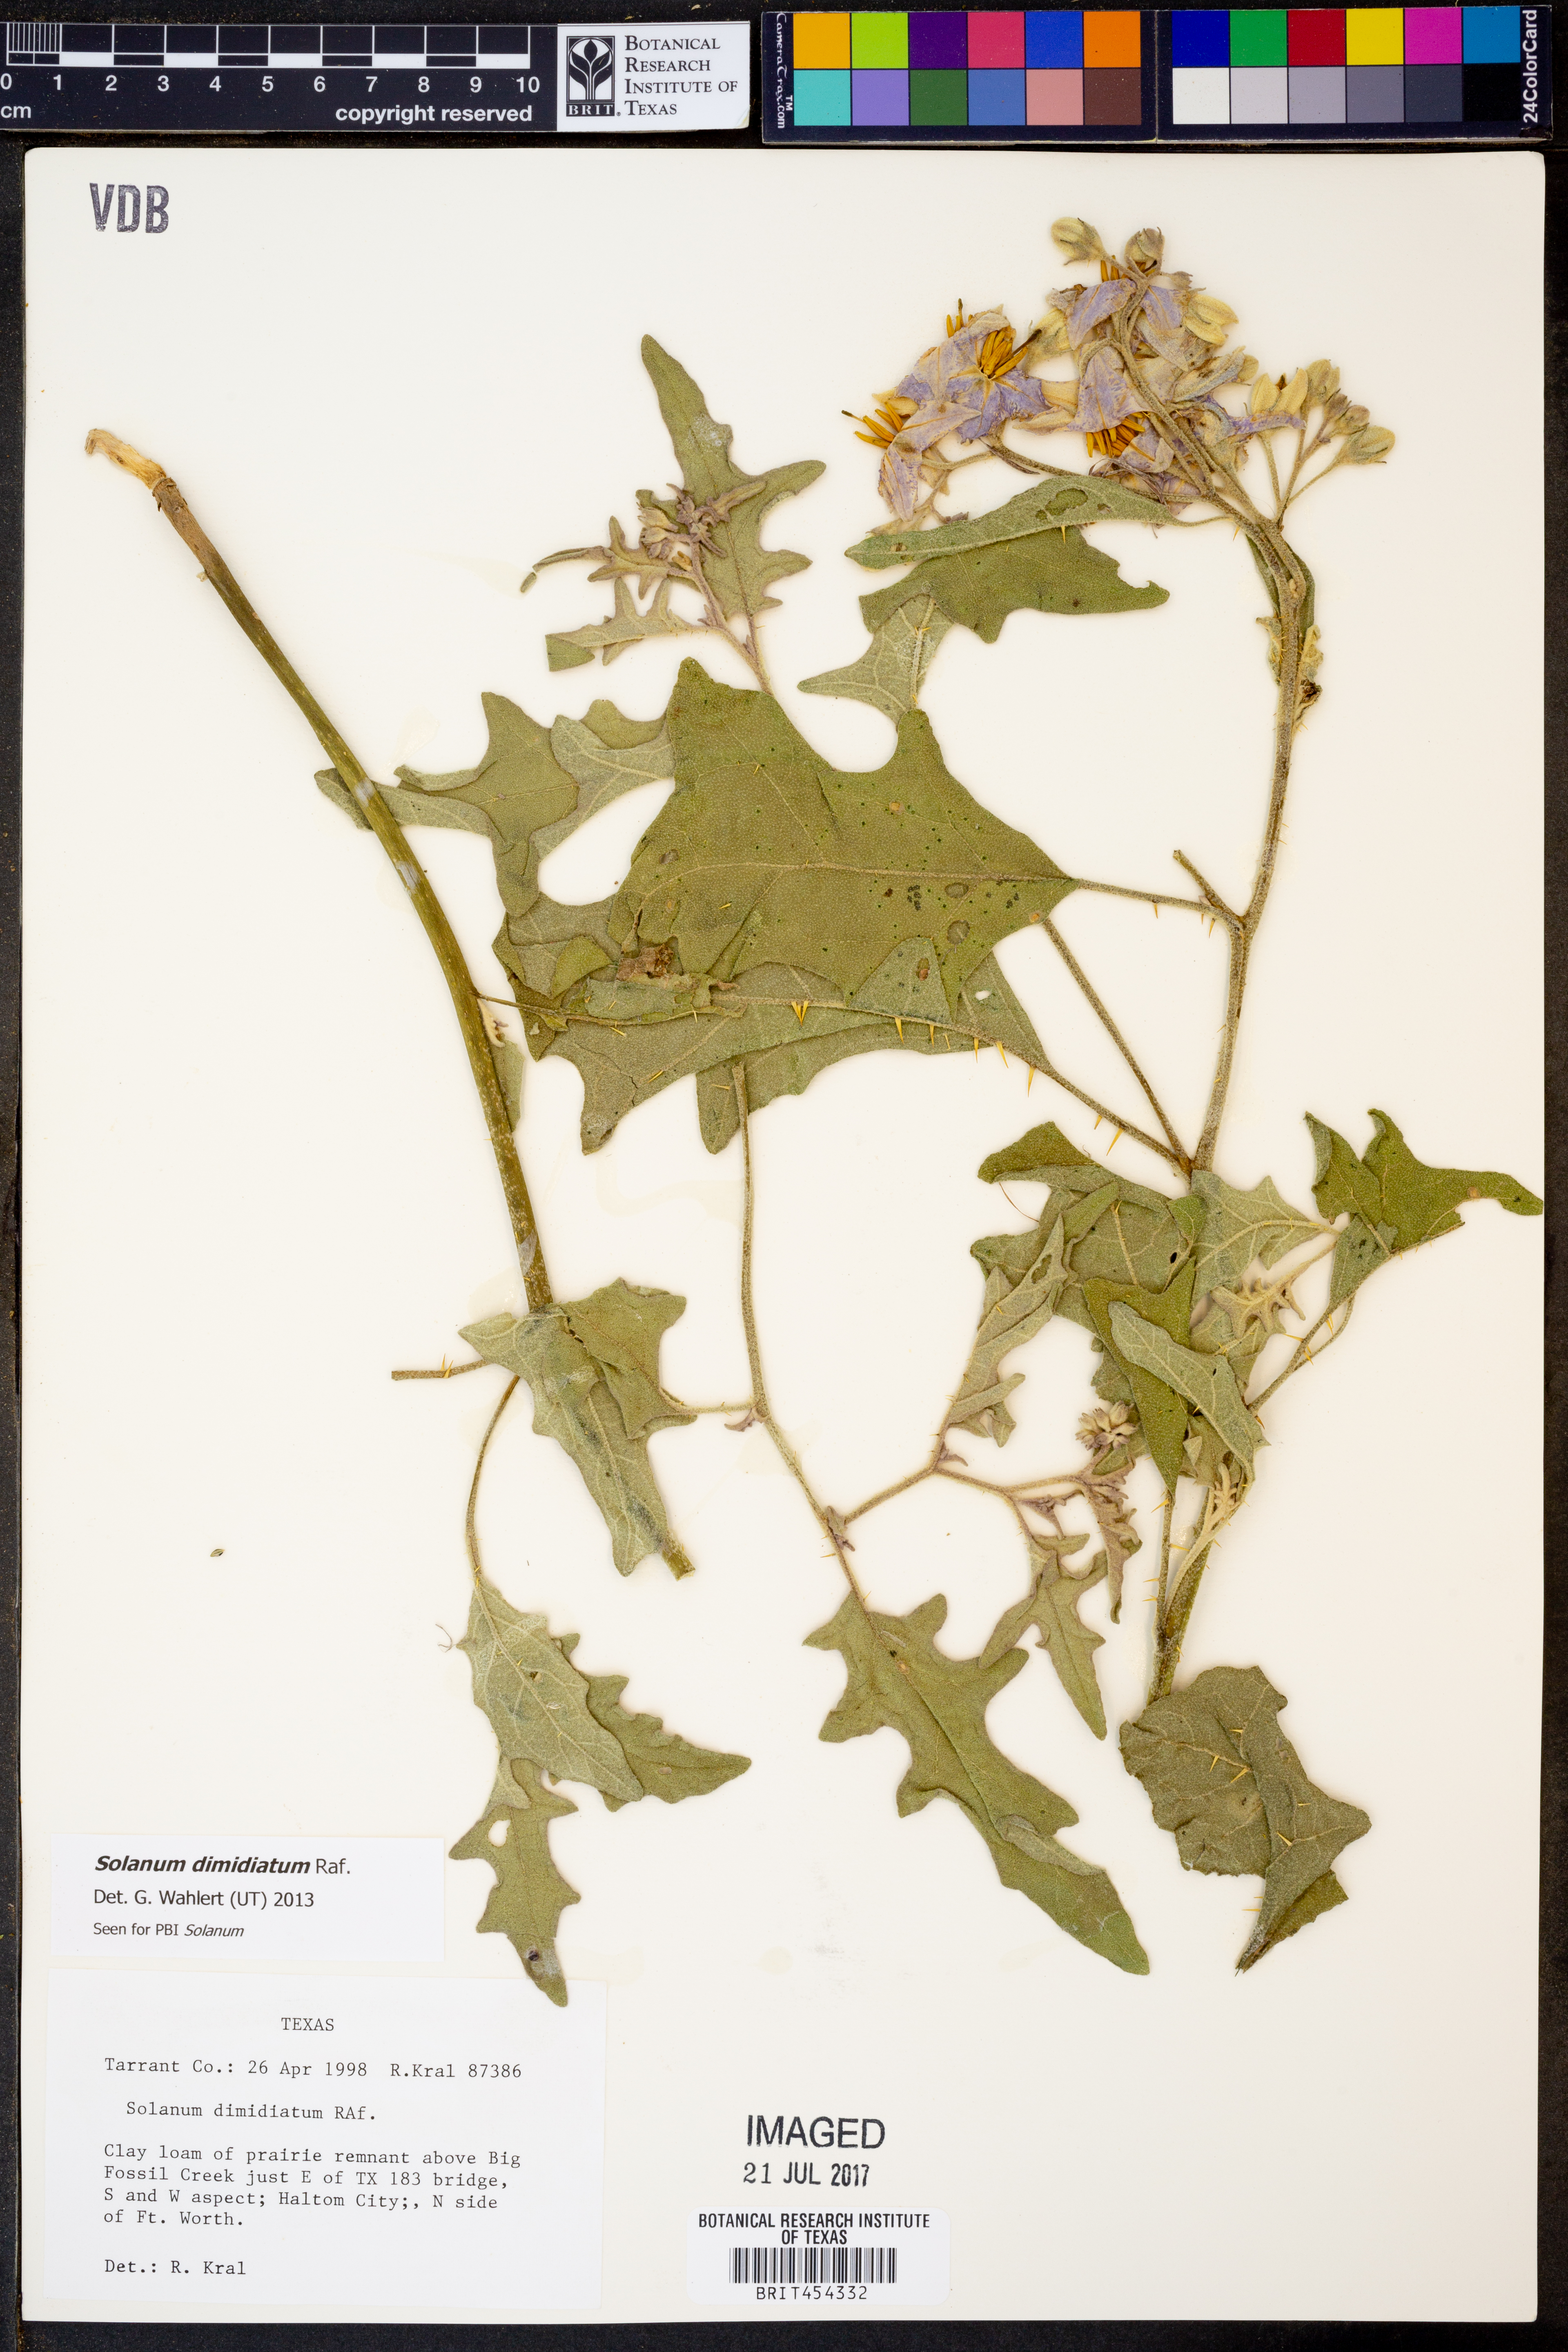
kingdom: Plantae
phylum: Tracheophyta
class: Magnoliopsida
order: Solanales
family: Solanaceae
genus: Solanum
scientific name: Solanum dimidiatum
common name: Carolina horse-nettle
